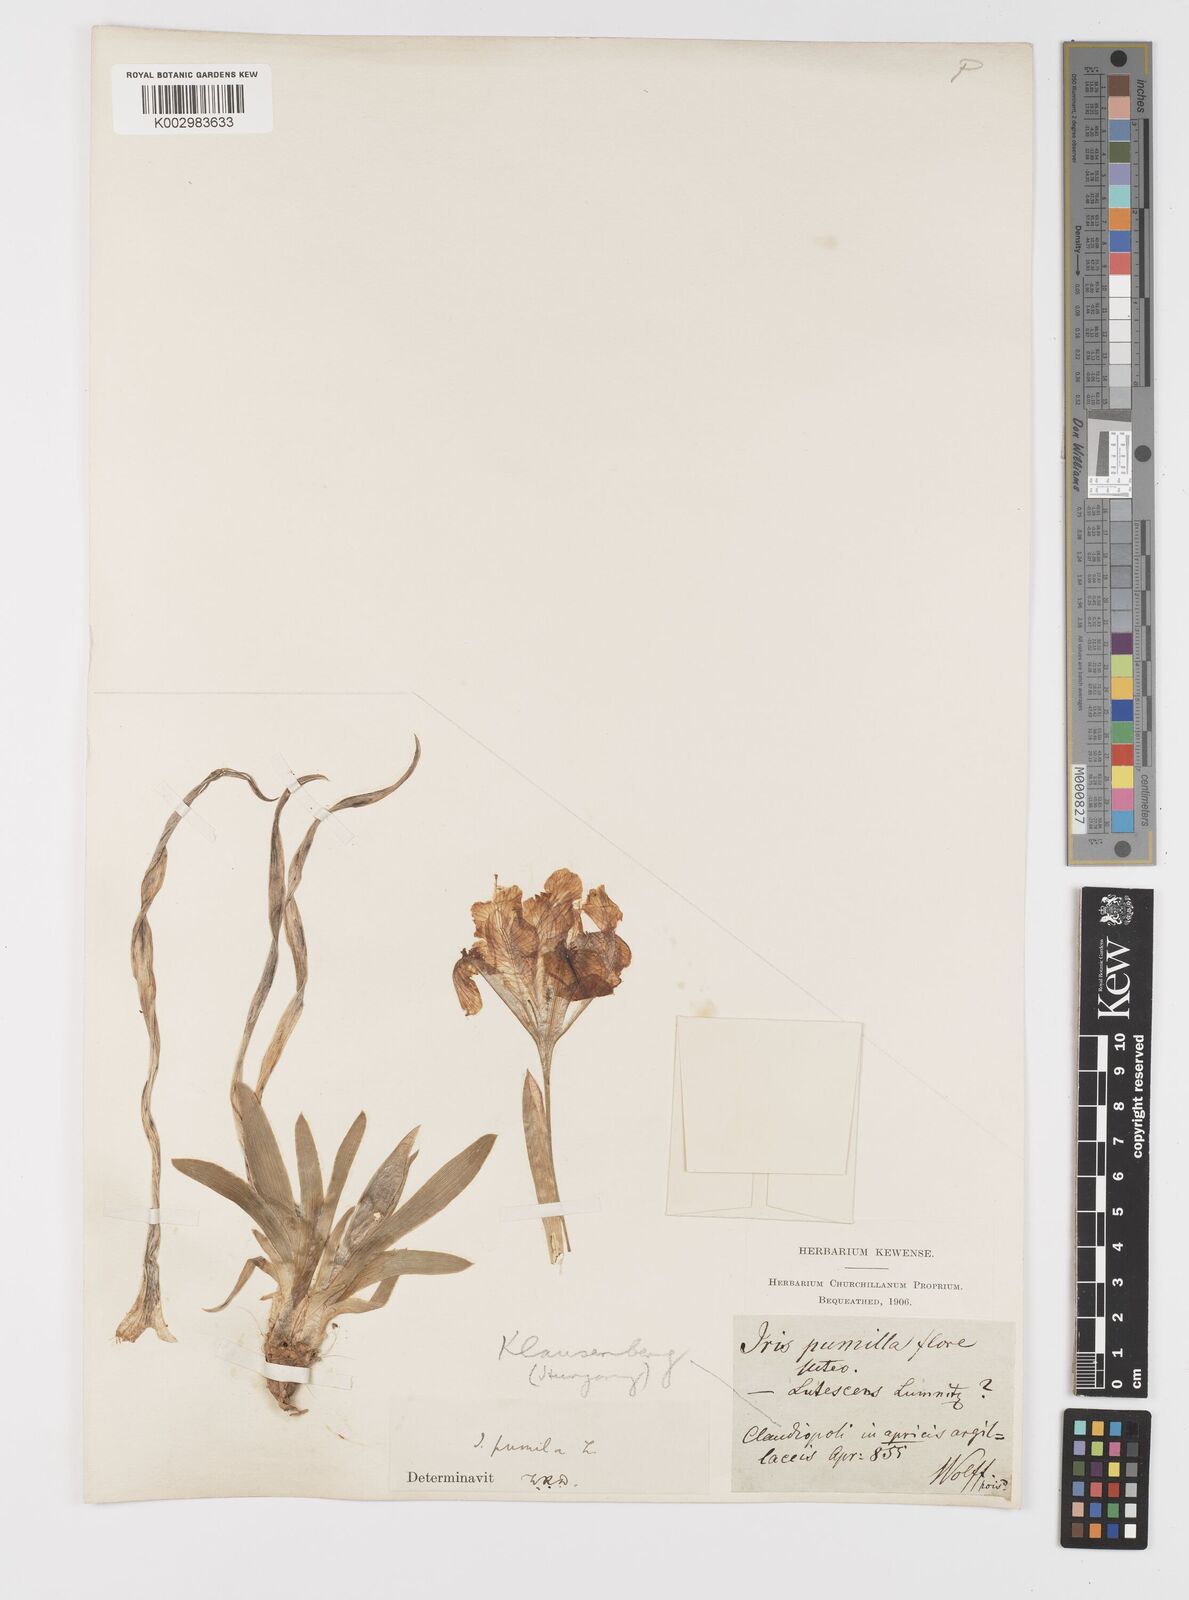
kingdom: Plantae
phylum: Tracheophyta
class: Liliopsida
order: Asparagales
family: Iridaceae
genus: Iris
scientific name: Iris pumila
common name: Dwarf iris
